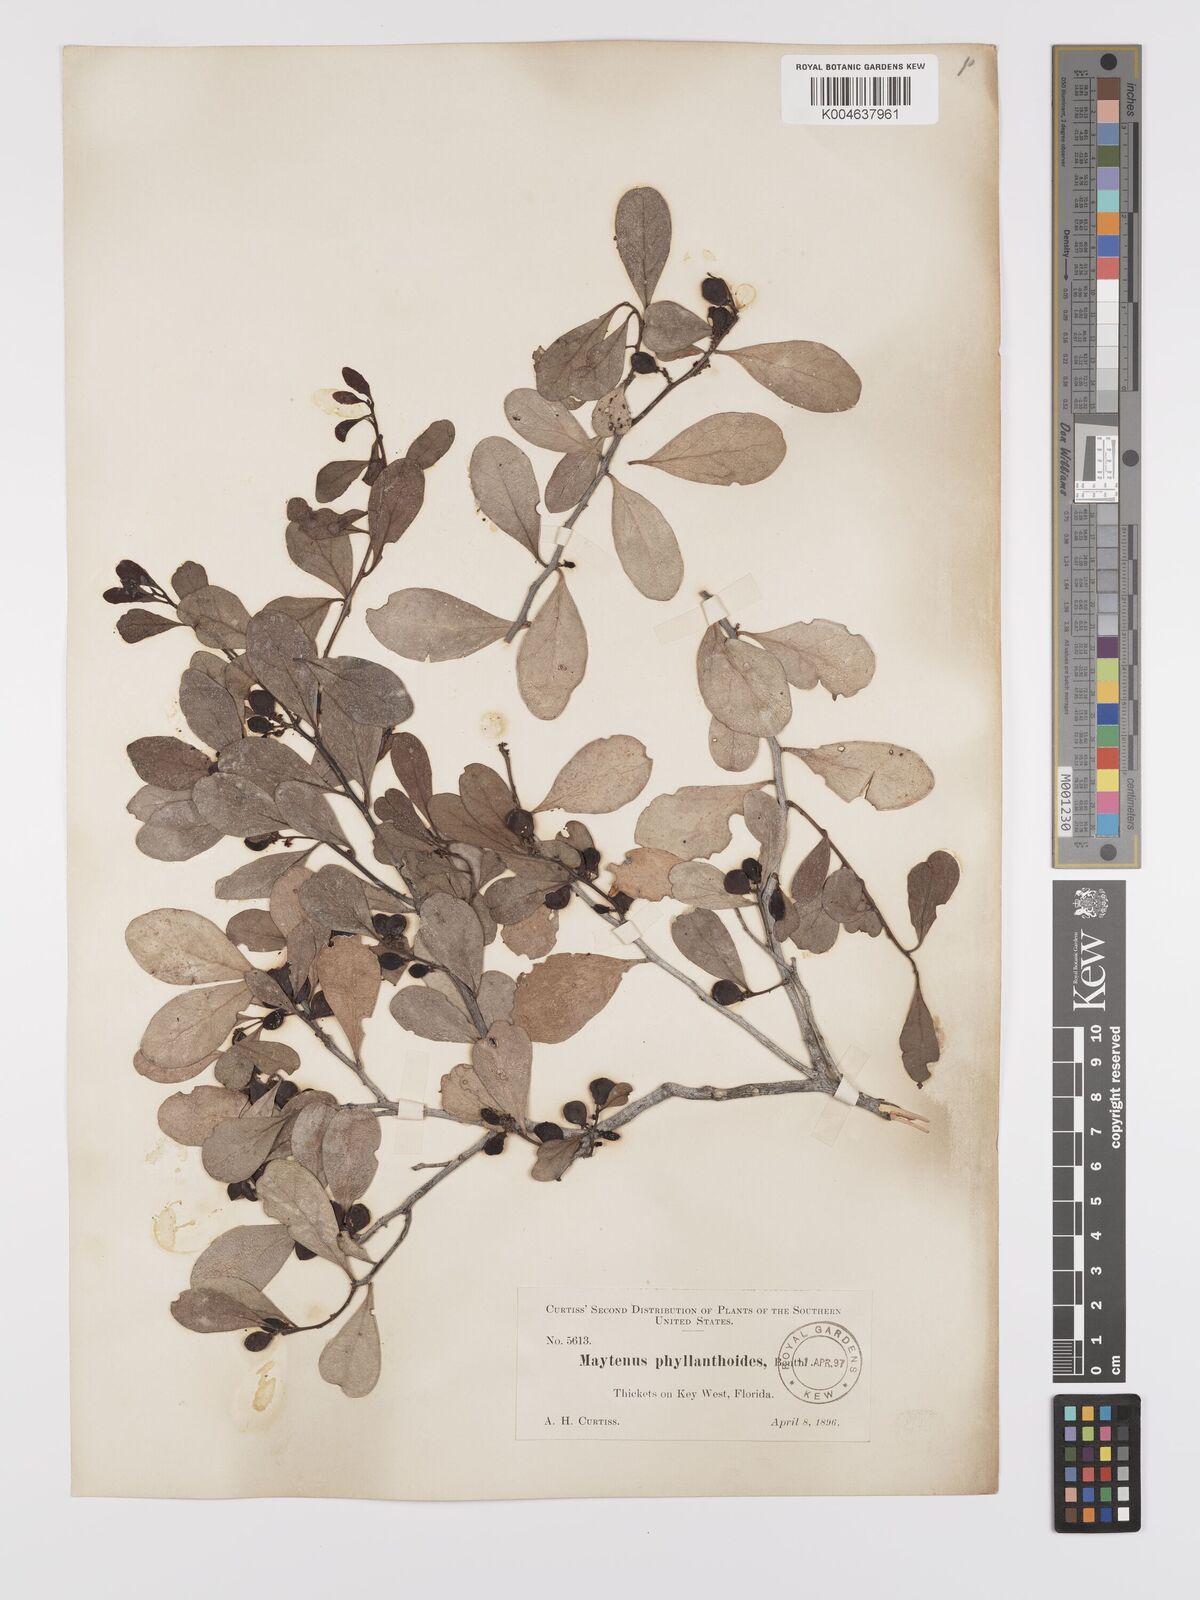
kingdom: Plantae
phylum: Tracheophyta
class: Magnoliopsida
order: Celastrales
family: Celastraceae
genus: Tricerma
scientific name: Tricerma phyllanthoides
